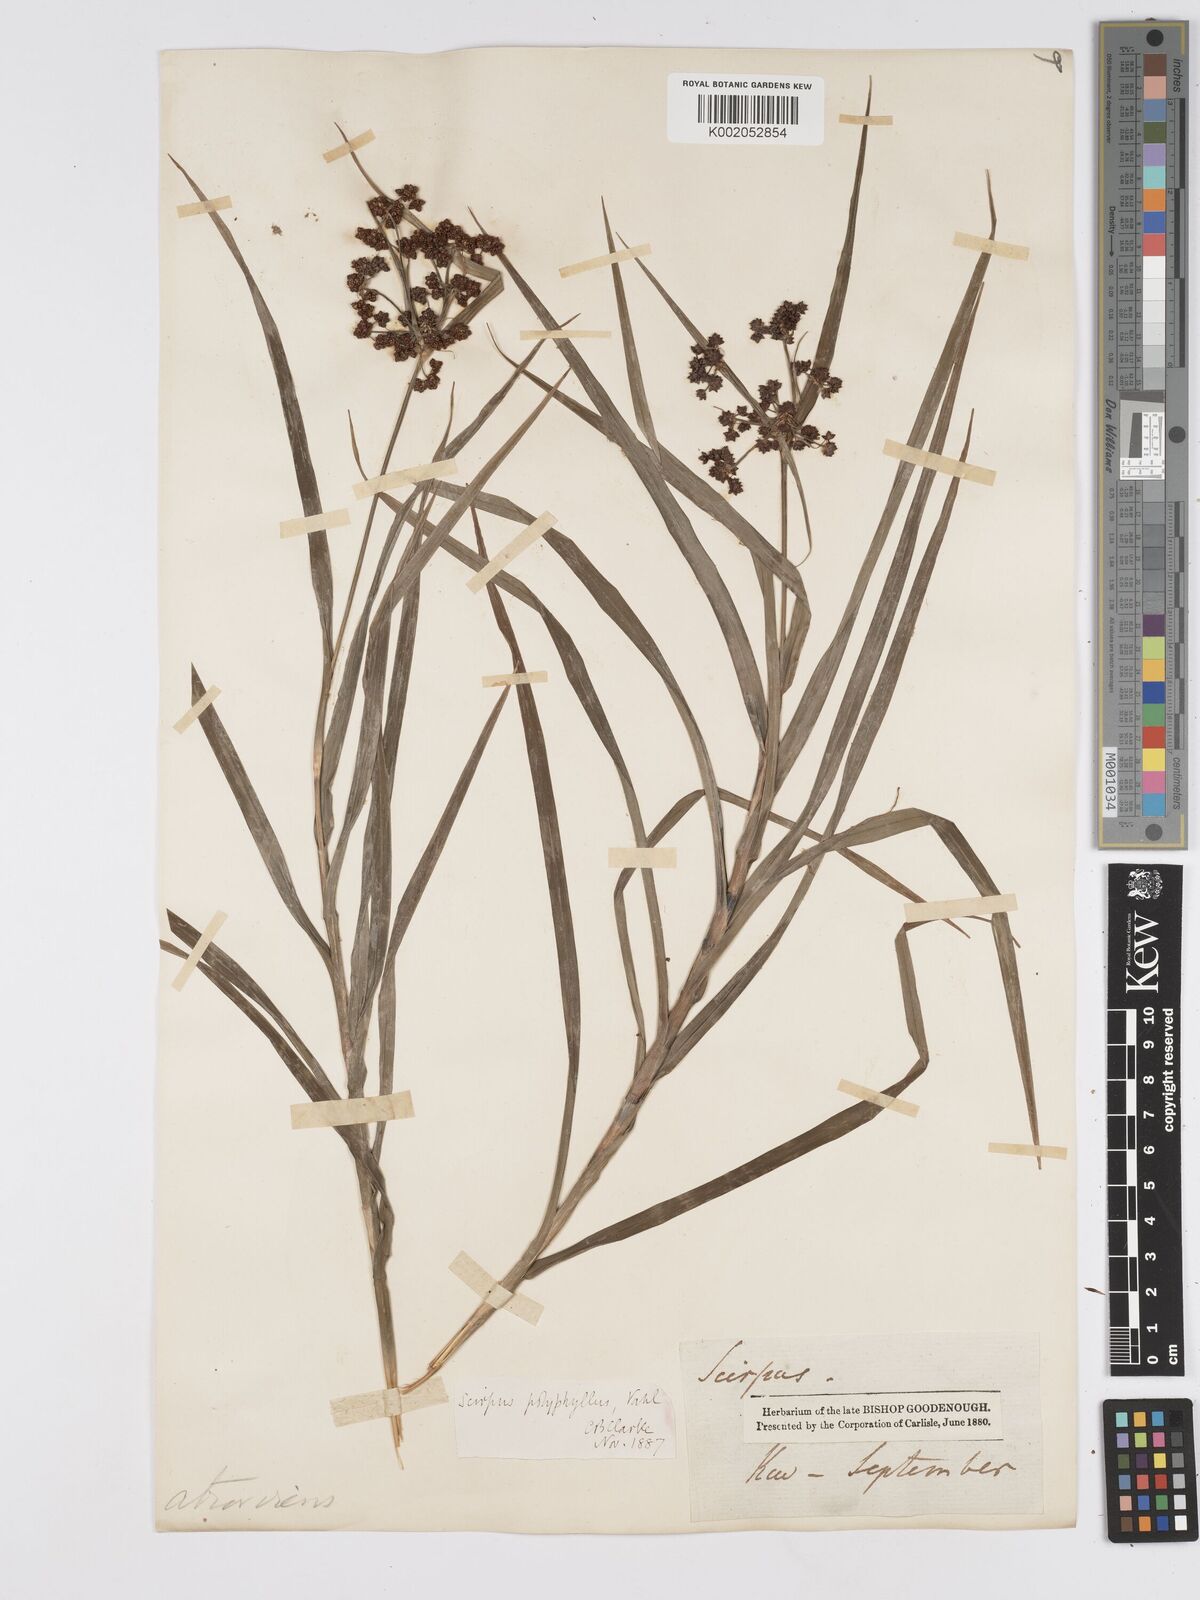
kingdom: Plantae
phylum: Tracheophyta
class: Liliopsida
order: Poales
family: Cyperaceae
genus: Scirpus
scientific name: Scirpus polyphyllus
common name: Leafy bulrush
